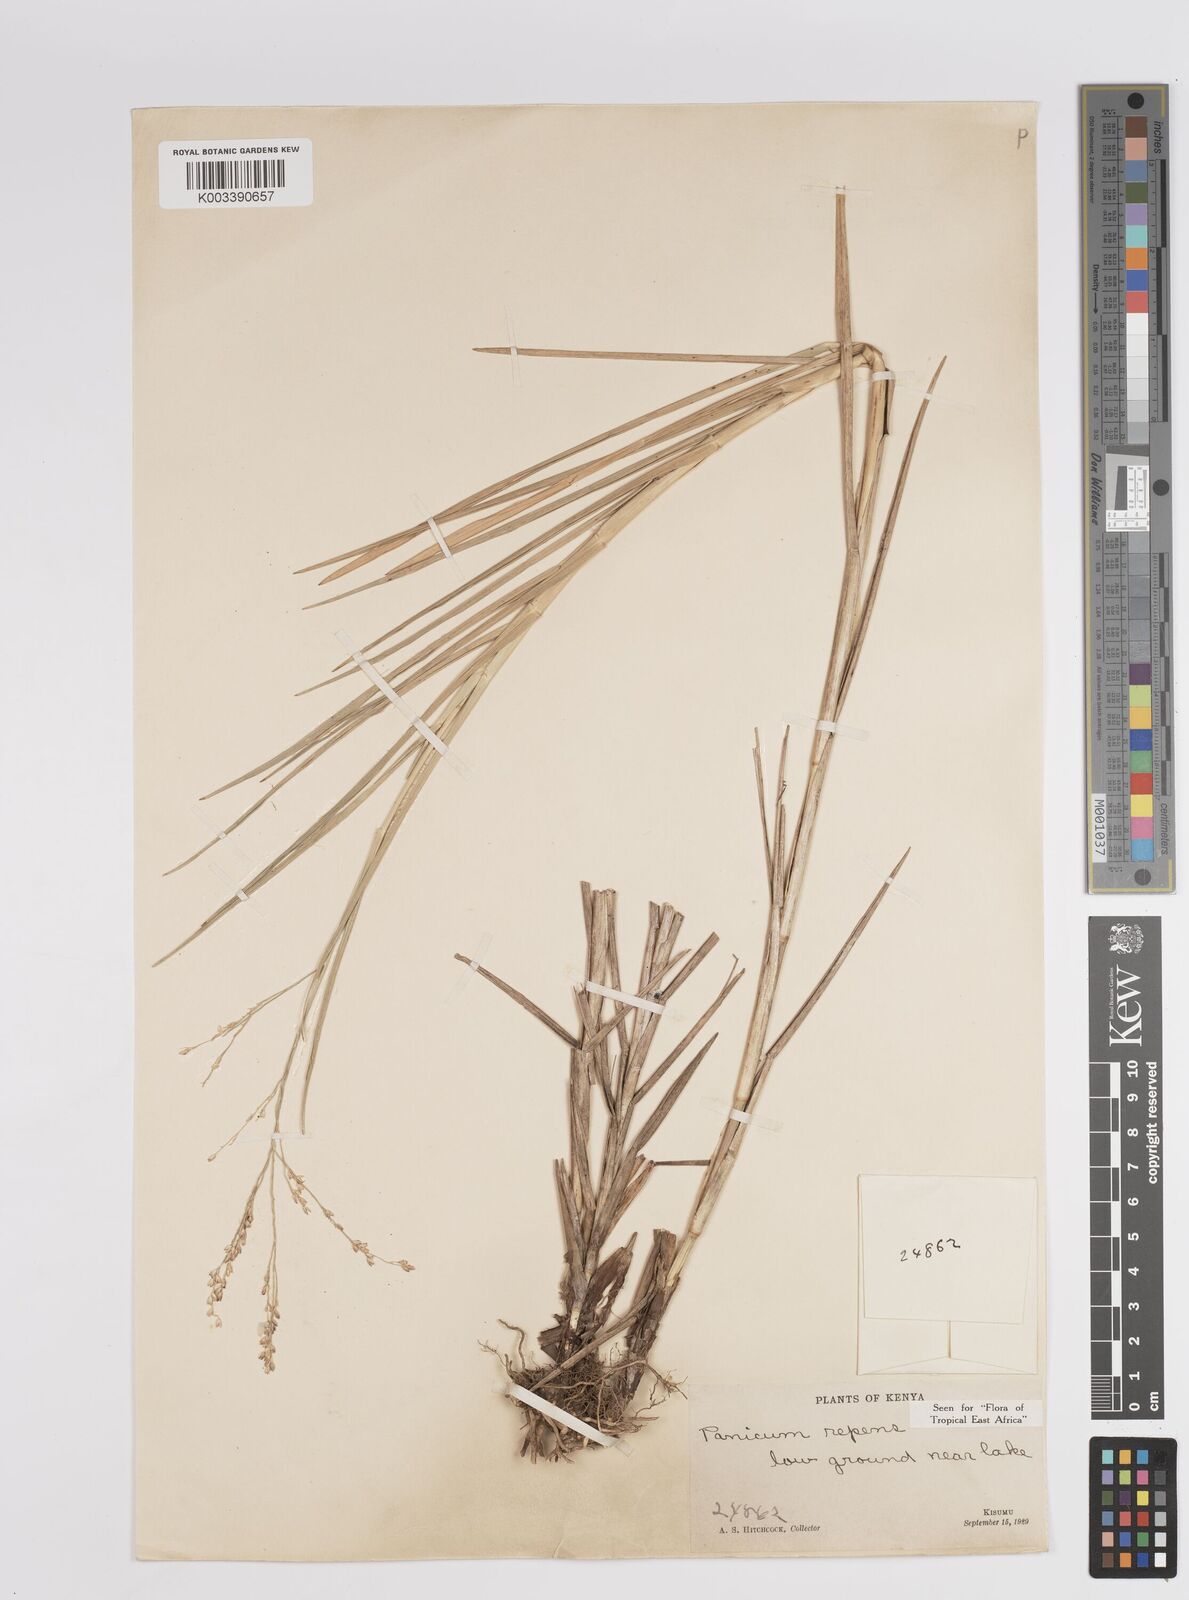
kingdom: Plantae
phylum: Tracheophyta
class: Liliopsida
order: Poales
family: Poaceae
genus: Panicum
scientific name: Panicum repens
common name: Torpedo grass
